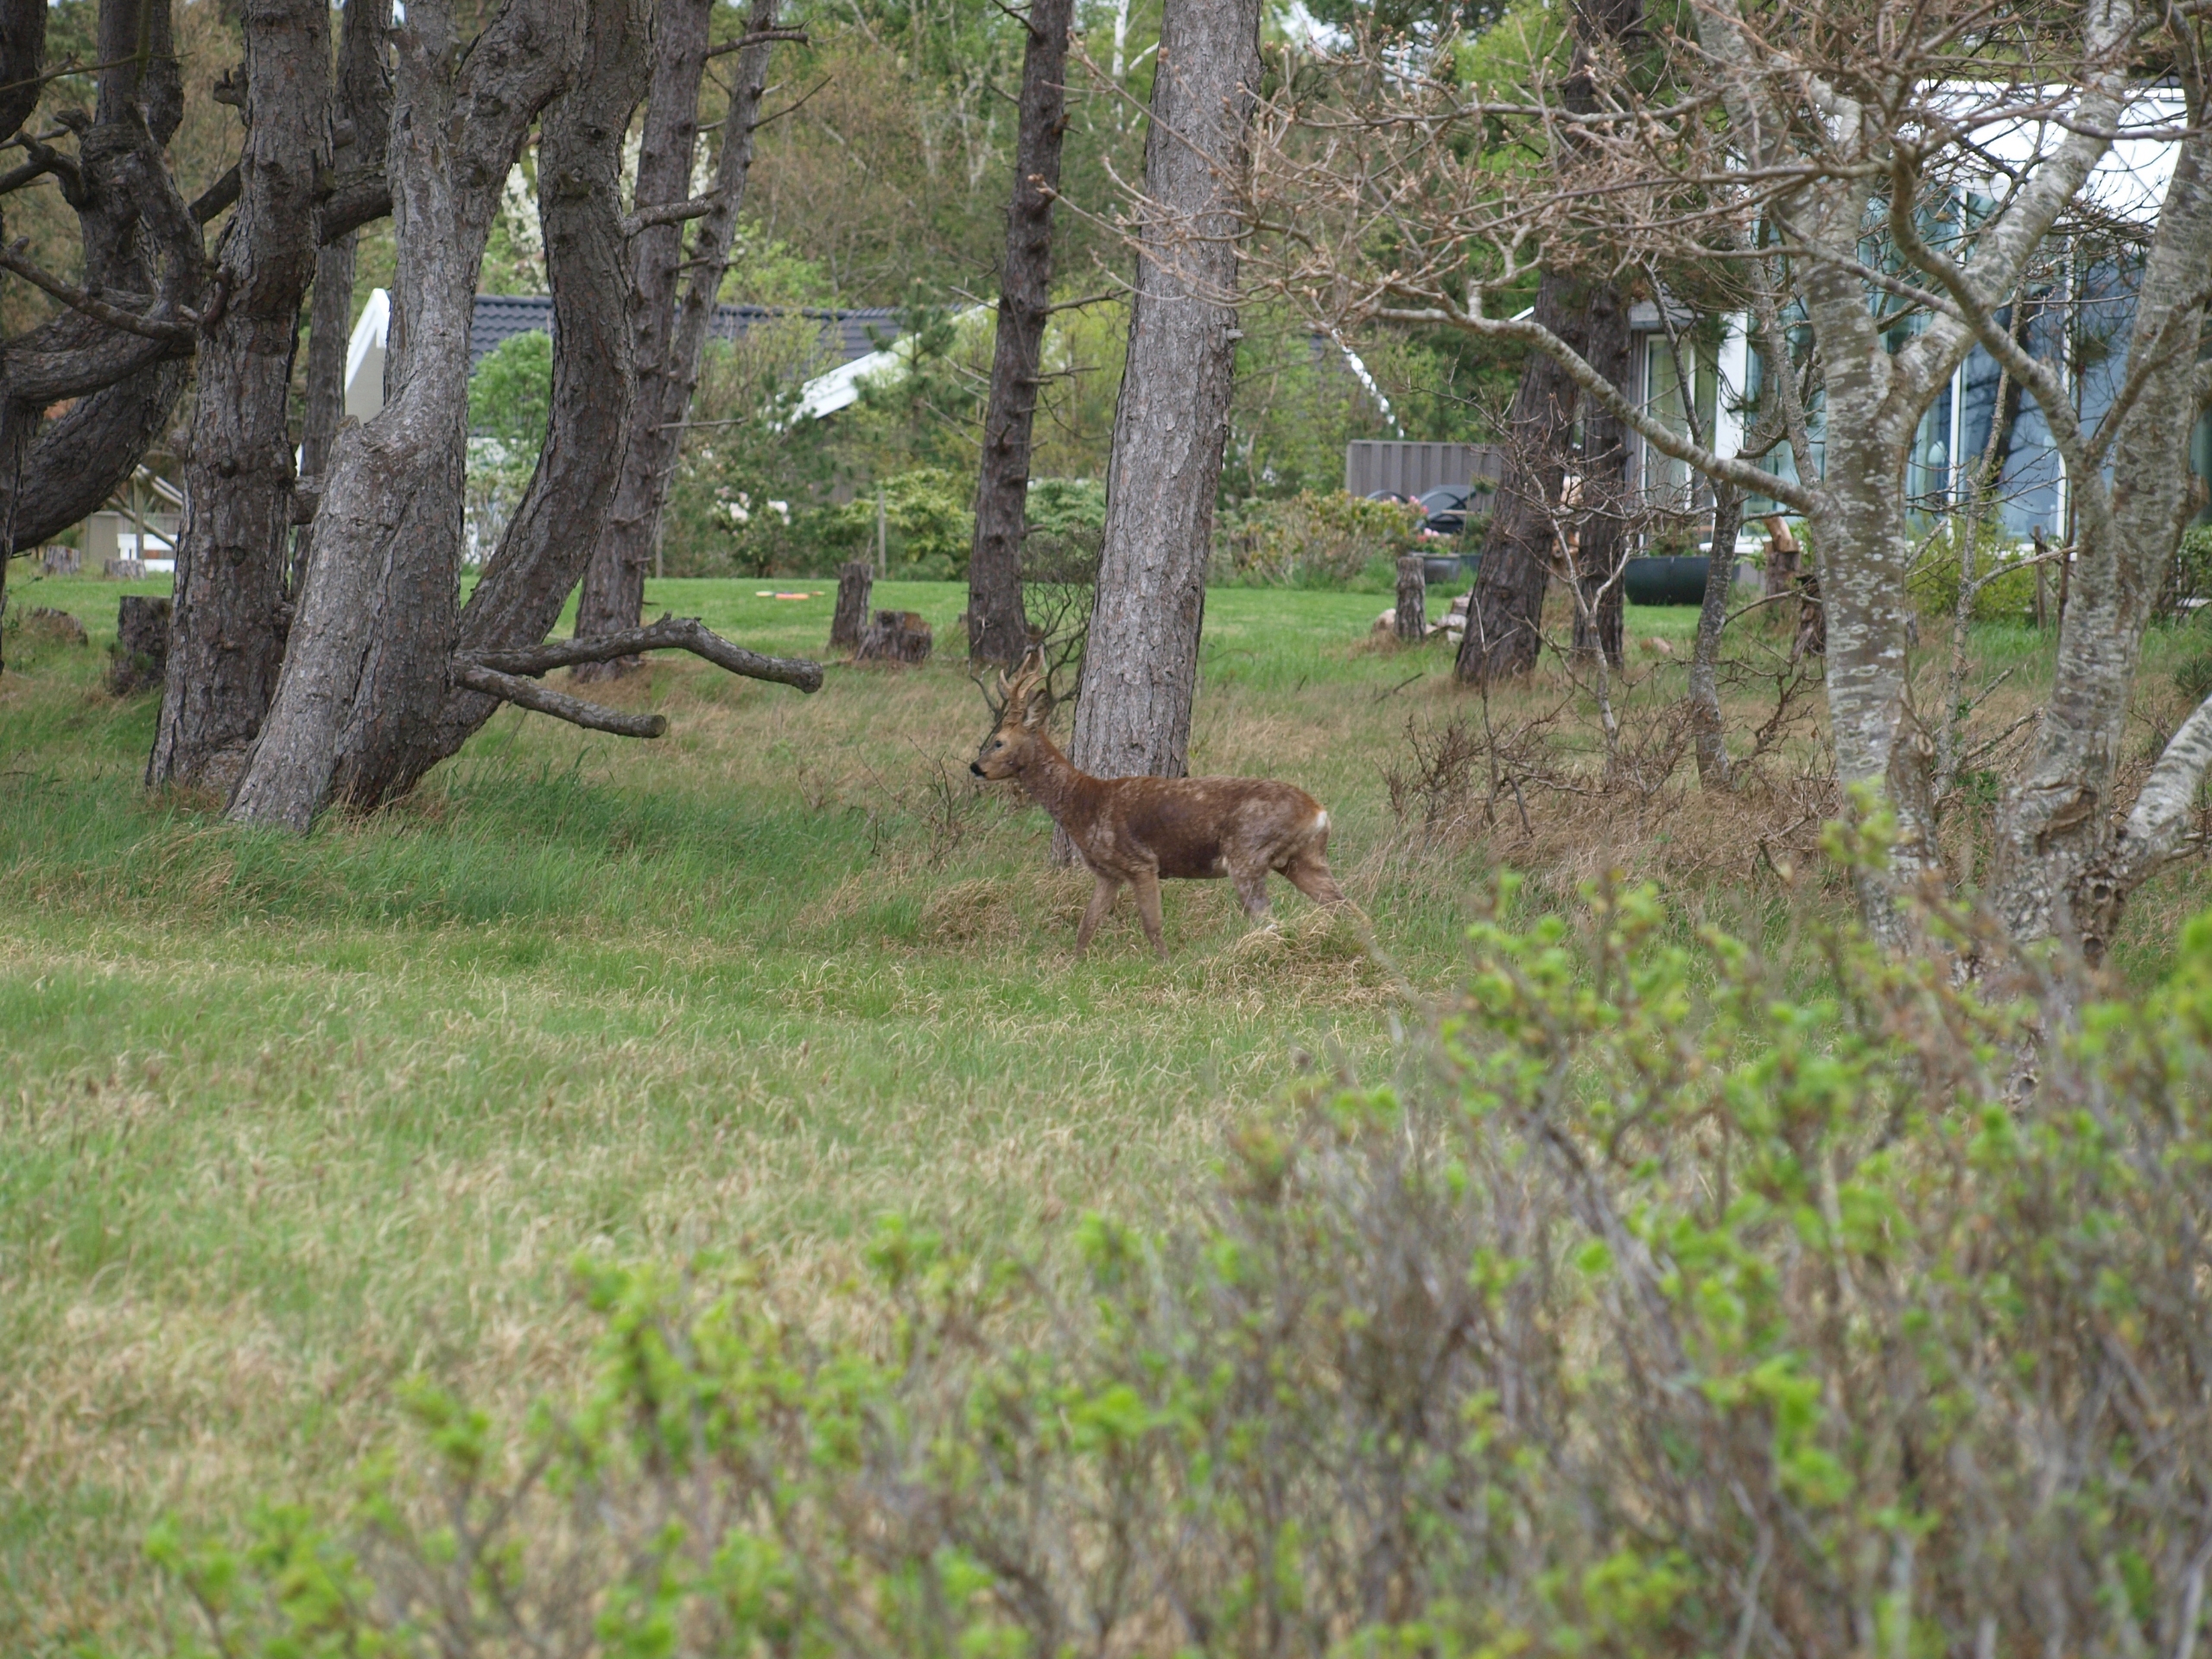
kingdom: Animalia
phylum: Chordata
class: Mammalia
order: Artiodactyla
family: Cervidae
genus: Capreolus
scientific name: Capreolus capreolus
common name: Rådyr
